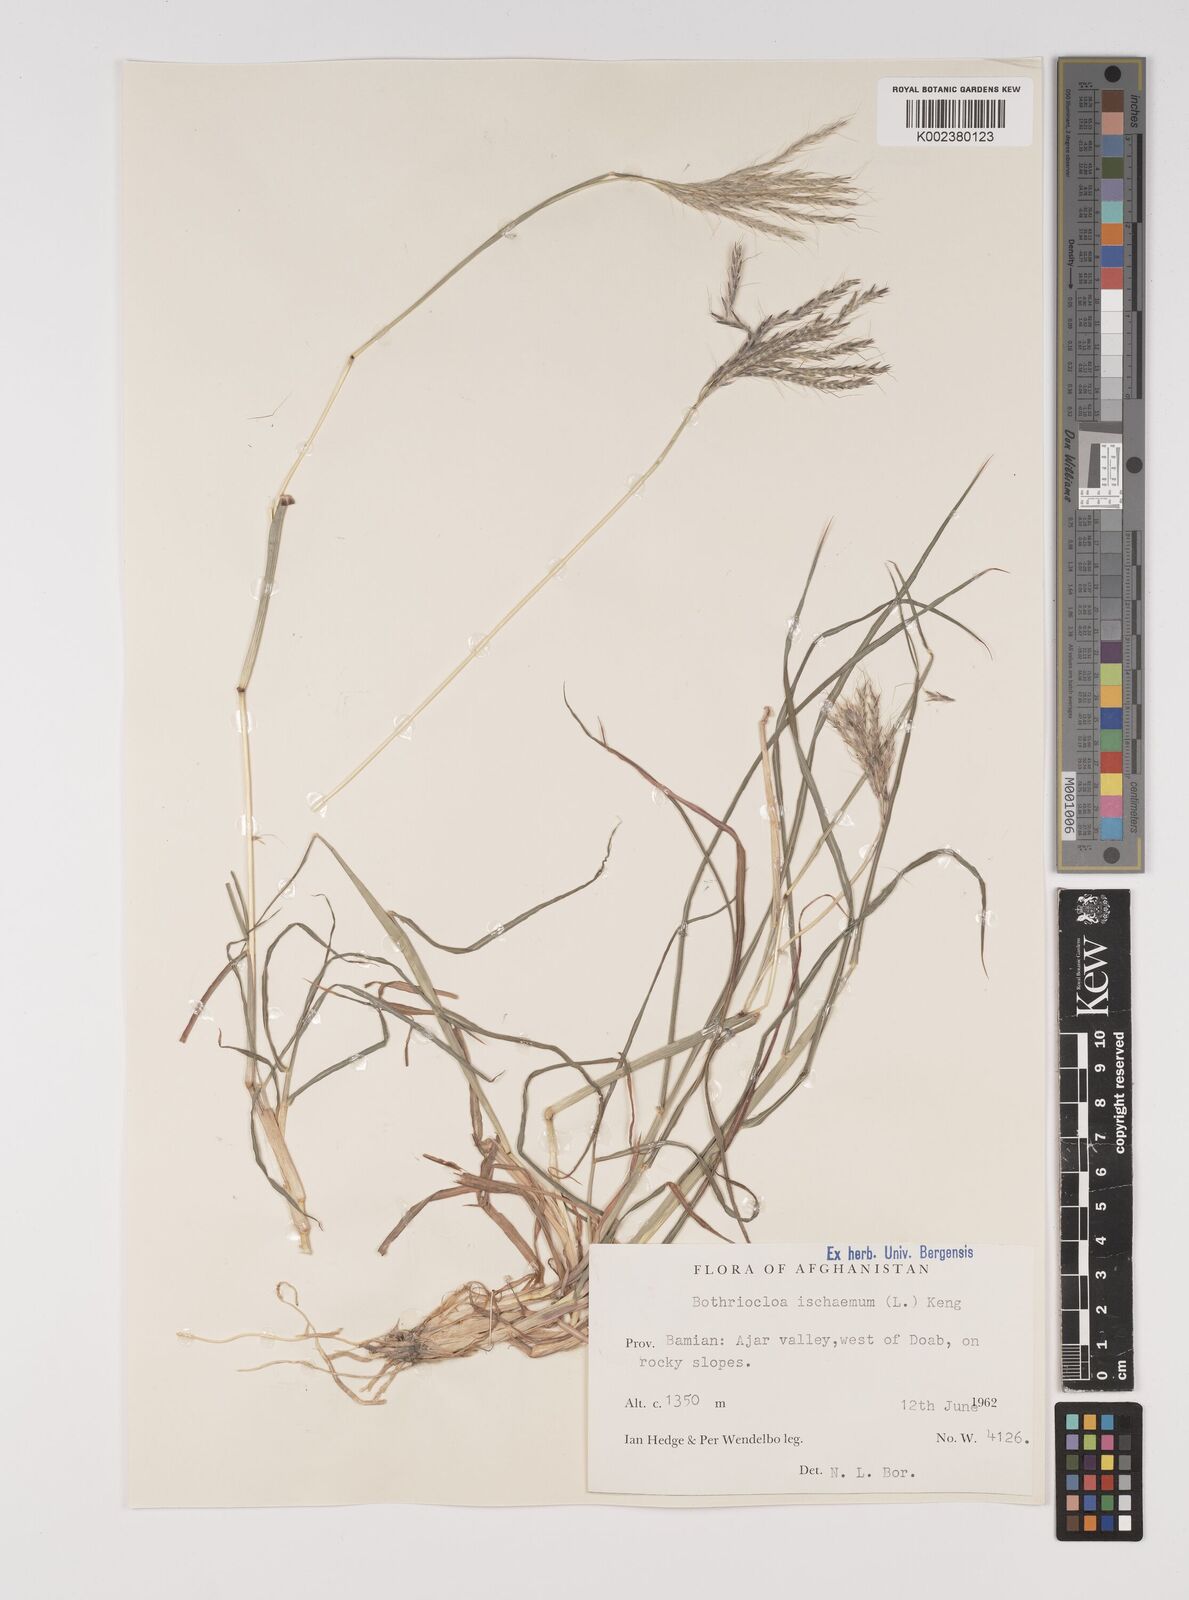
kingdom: Plantae
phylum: Tracheophyta
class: Liliopsida
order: Poales
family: Poaceae
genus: Bothriochloa
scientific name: Bothriochloa ischaemum
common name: Yellow bluestem
